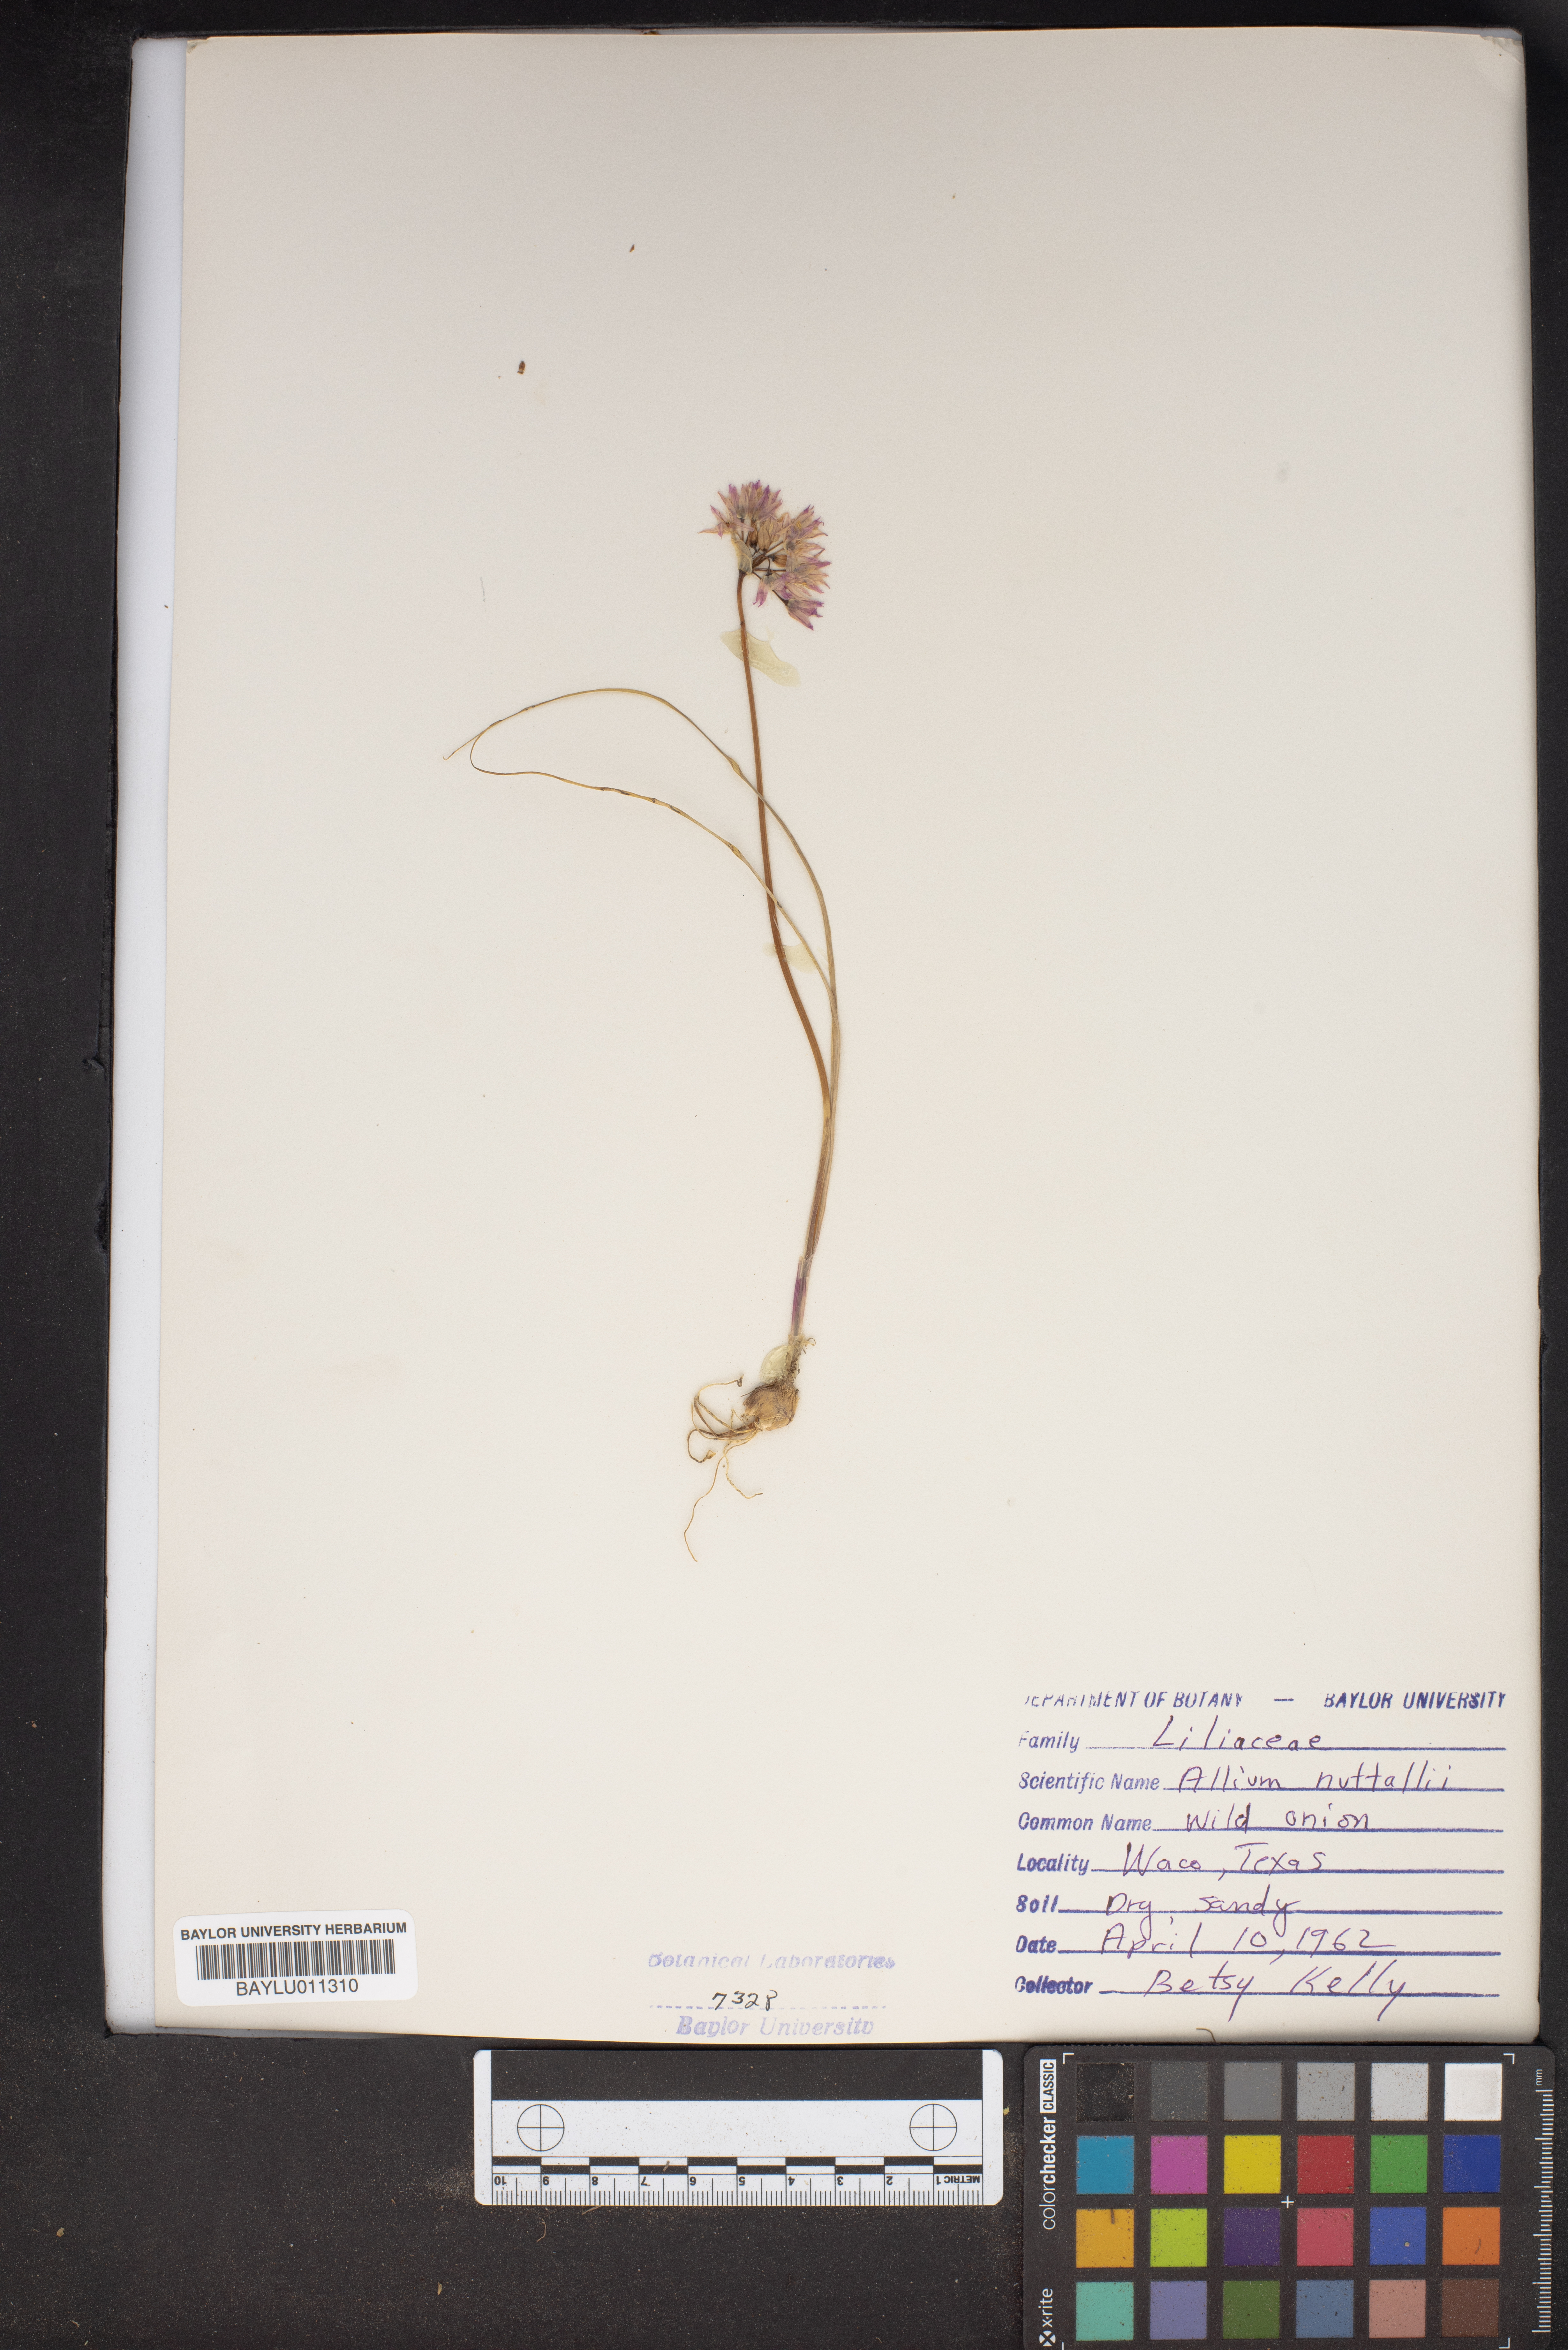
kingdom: Plantae
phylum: Tracheophyta
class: Liliopsida
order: Asparagales
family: Amaryllidaceae
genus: Allium
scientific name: Allium drummondii
